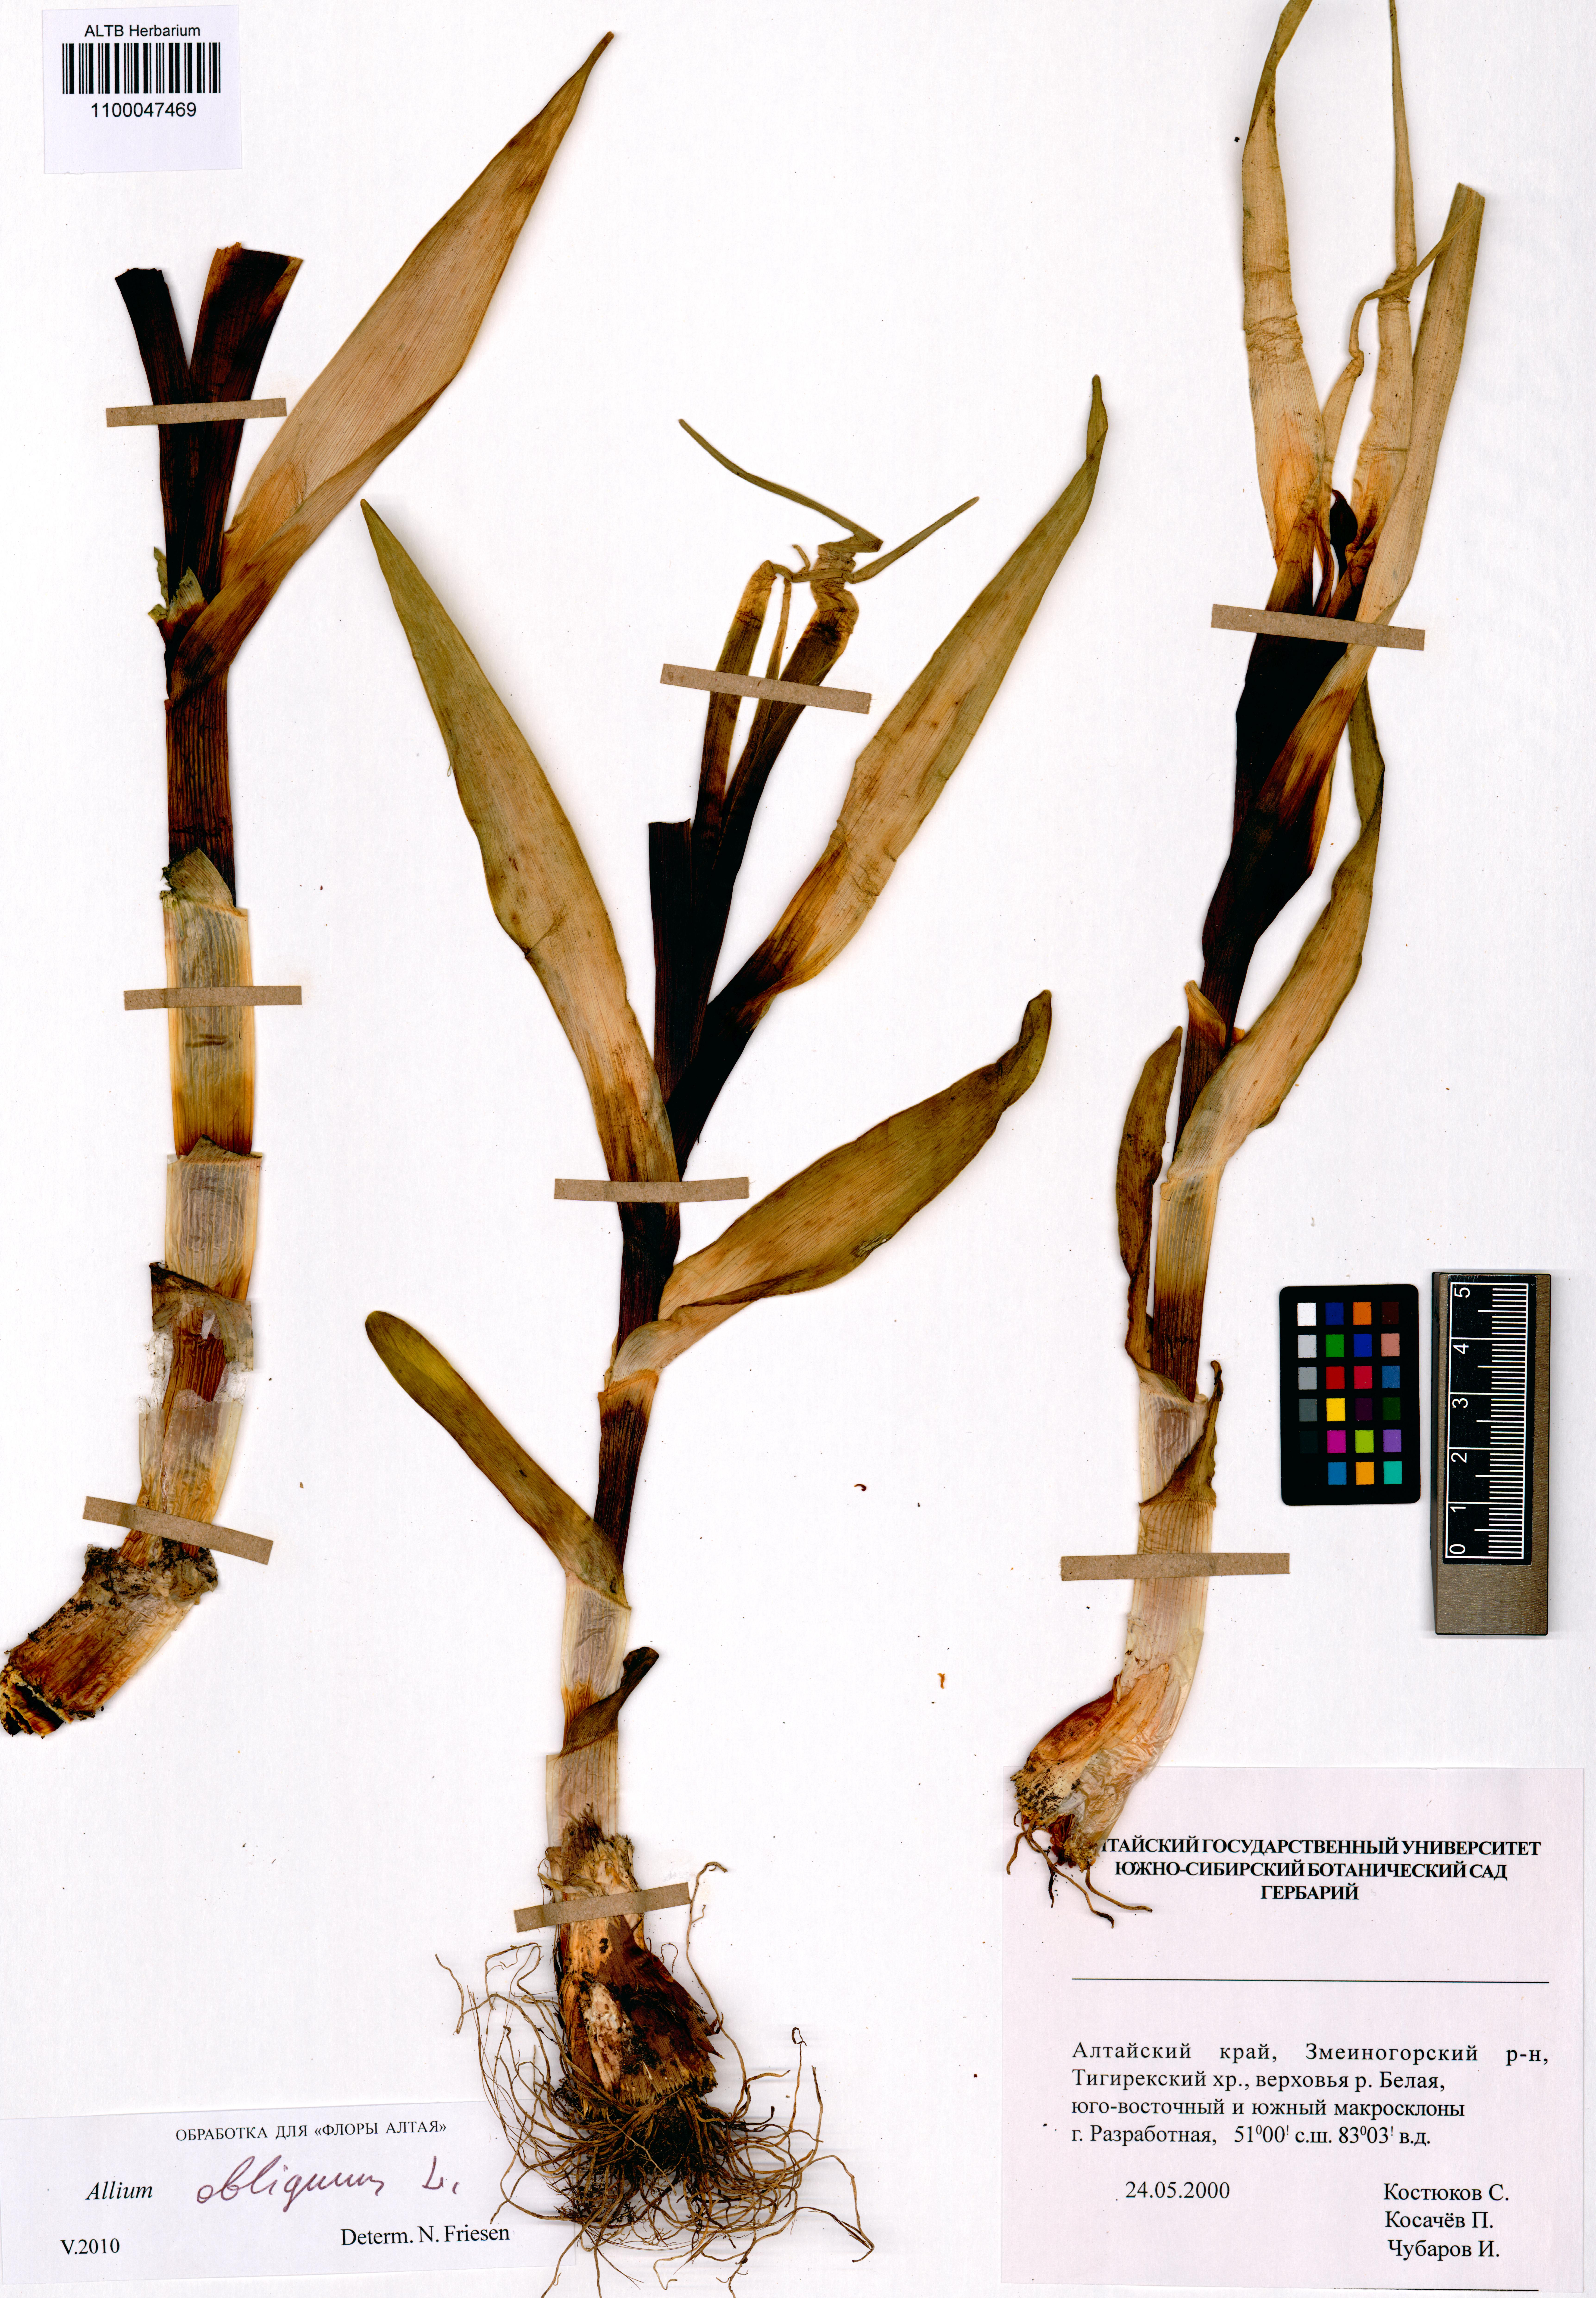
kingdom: Plantae
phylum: Tracheophyta
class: Liliopsida
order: Asparagales
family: Amaryllidaceae
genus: Allium
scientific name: Allium obliquum
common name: Oblique onion
